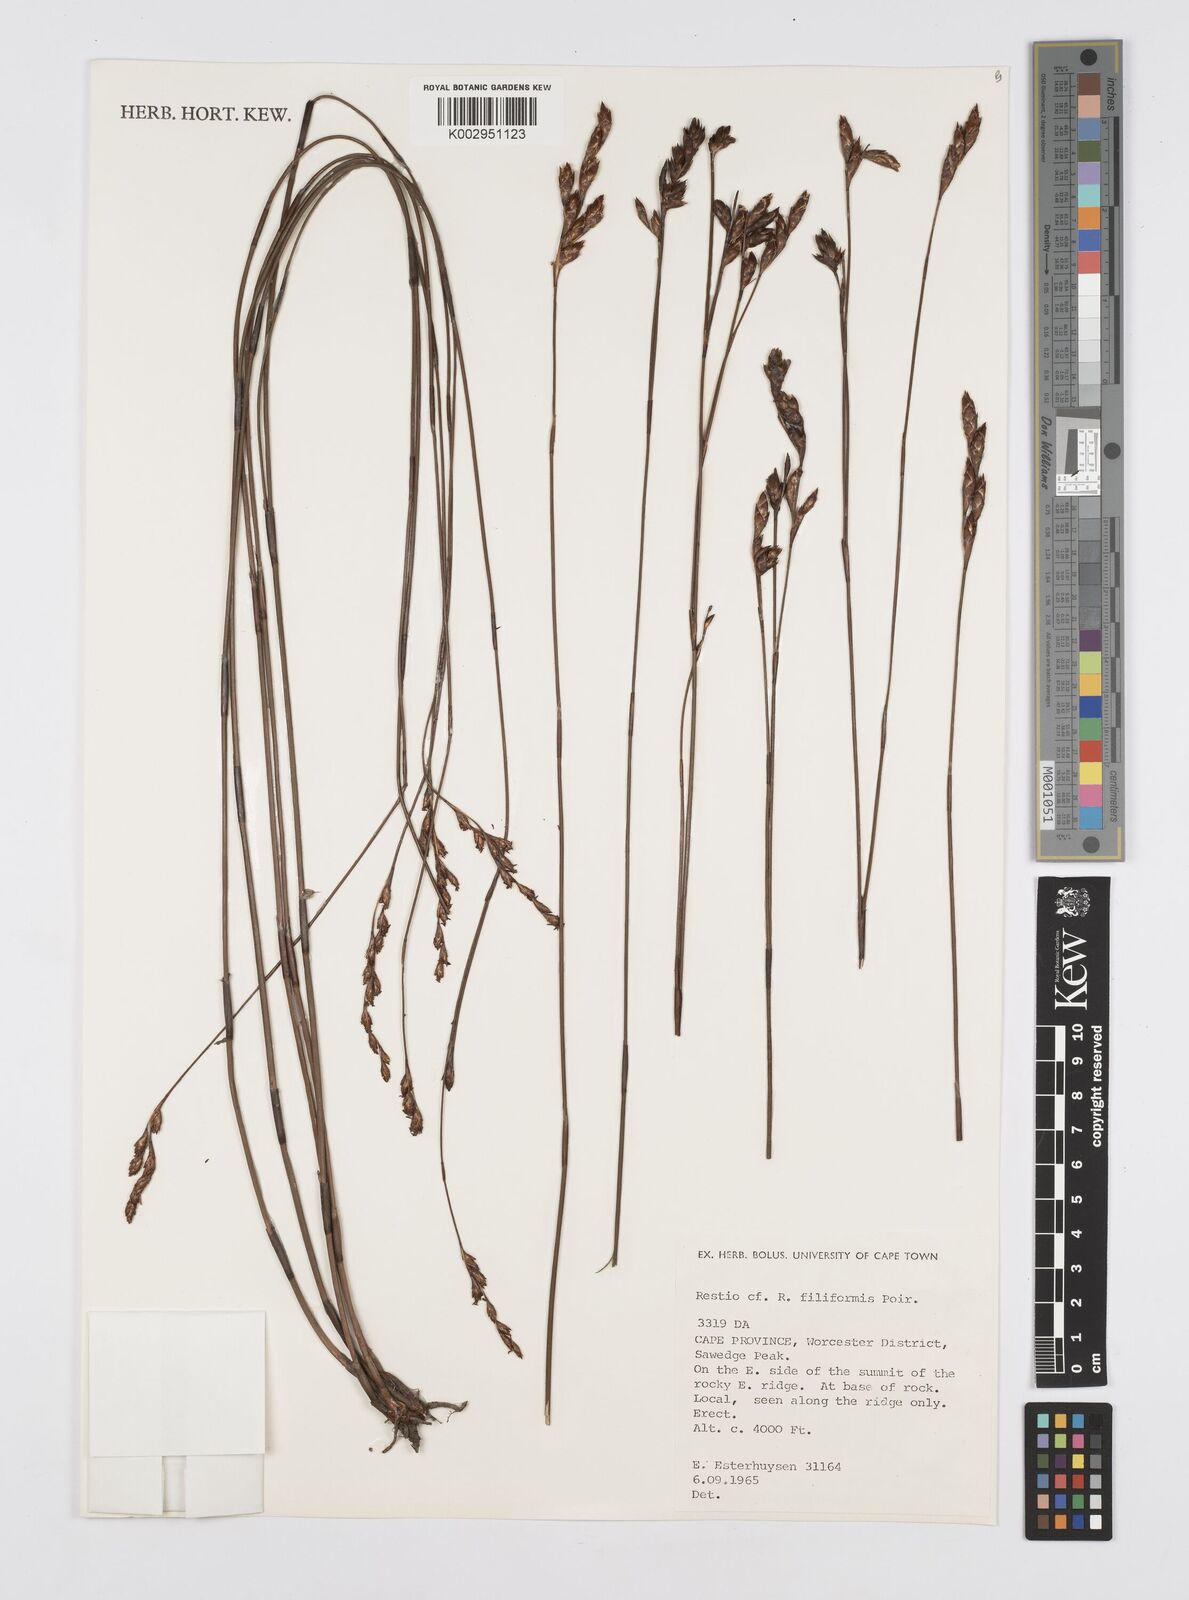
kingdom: Plantae
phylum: Tracheophyta
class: Liliopsida
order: Poales
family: Restionaceae
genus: Restio
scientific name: Restio filiformis
